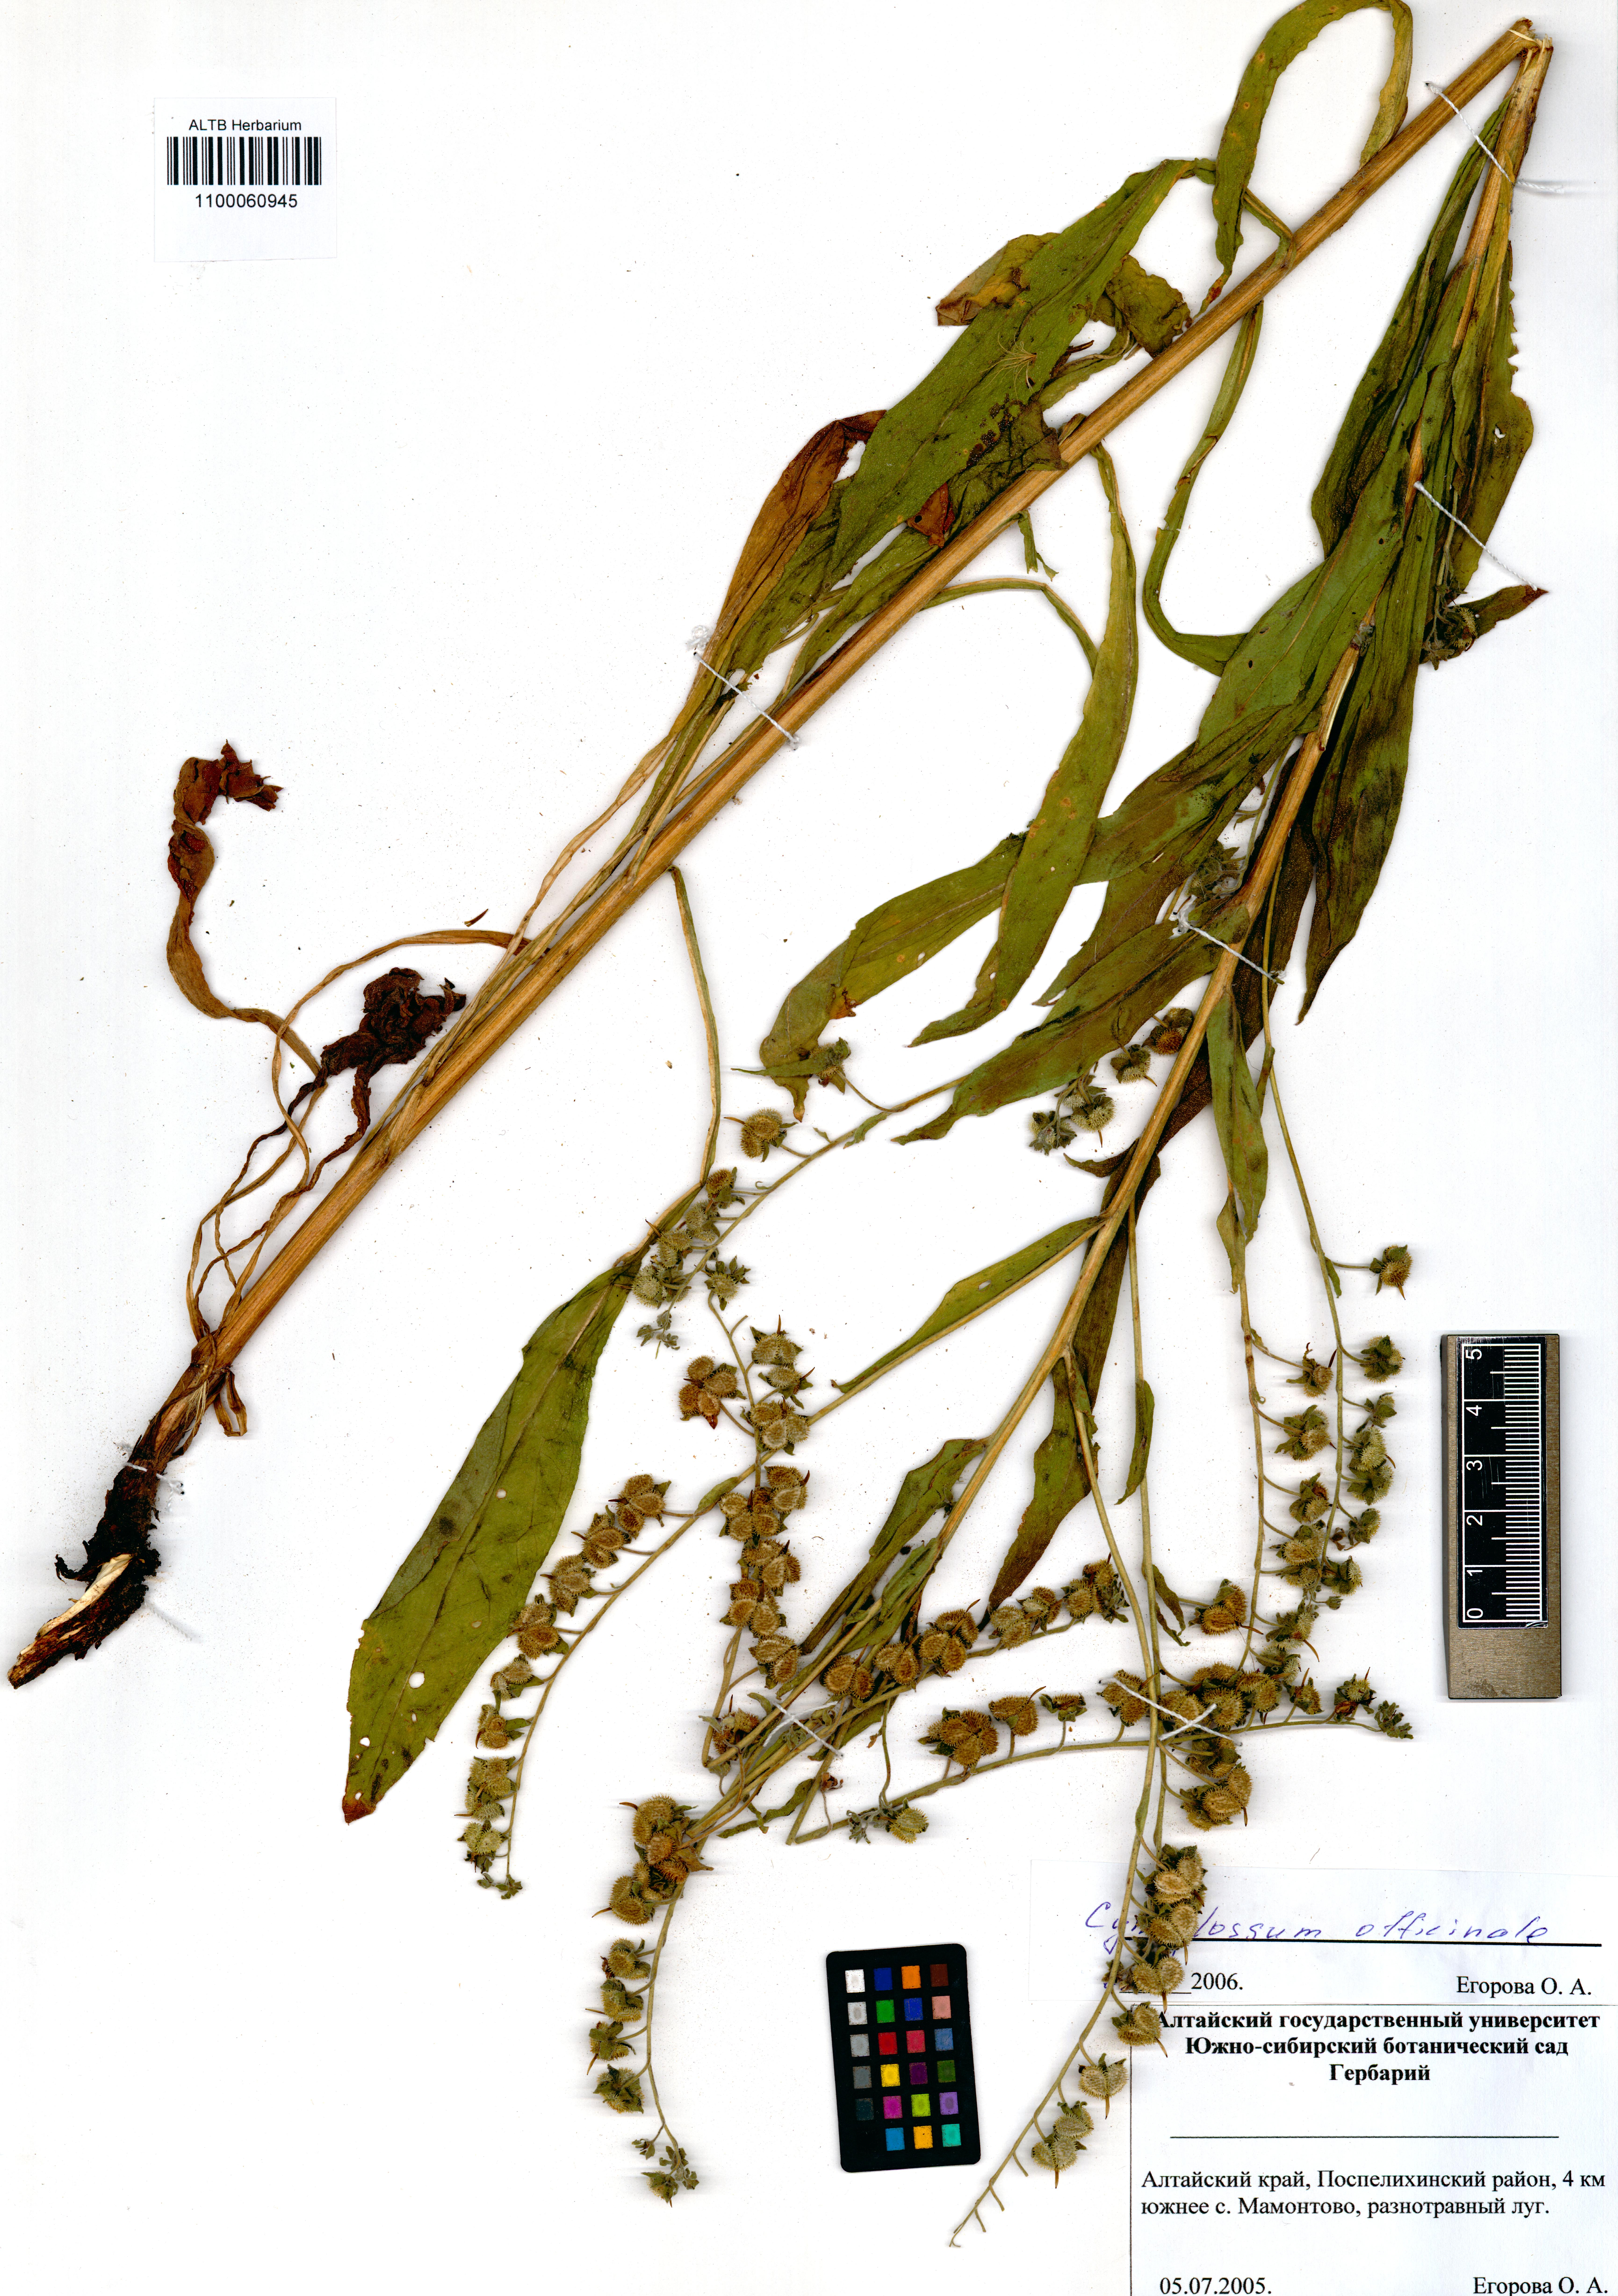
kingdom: Plantae
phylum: Tracheophyta
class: Magnoliopsida
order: Boraginales
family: Boraginaceae
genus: Cynoglossum
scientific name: Cynoglossum officinale
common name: Hound's-tongue
